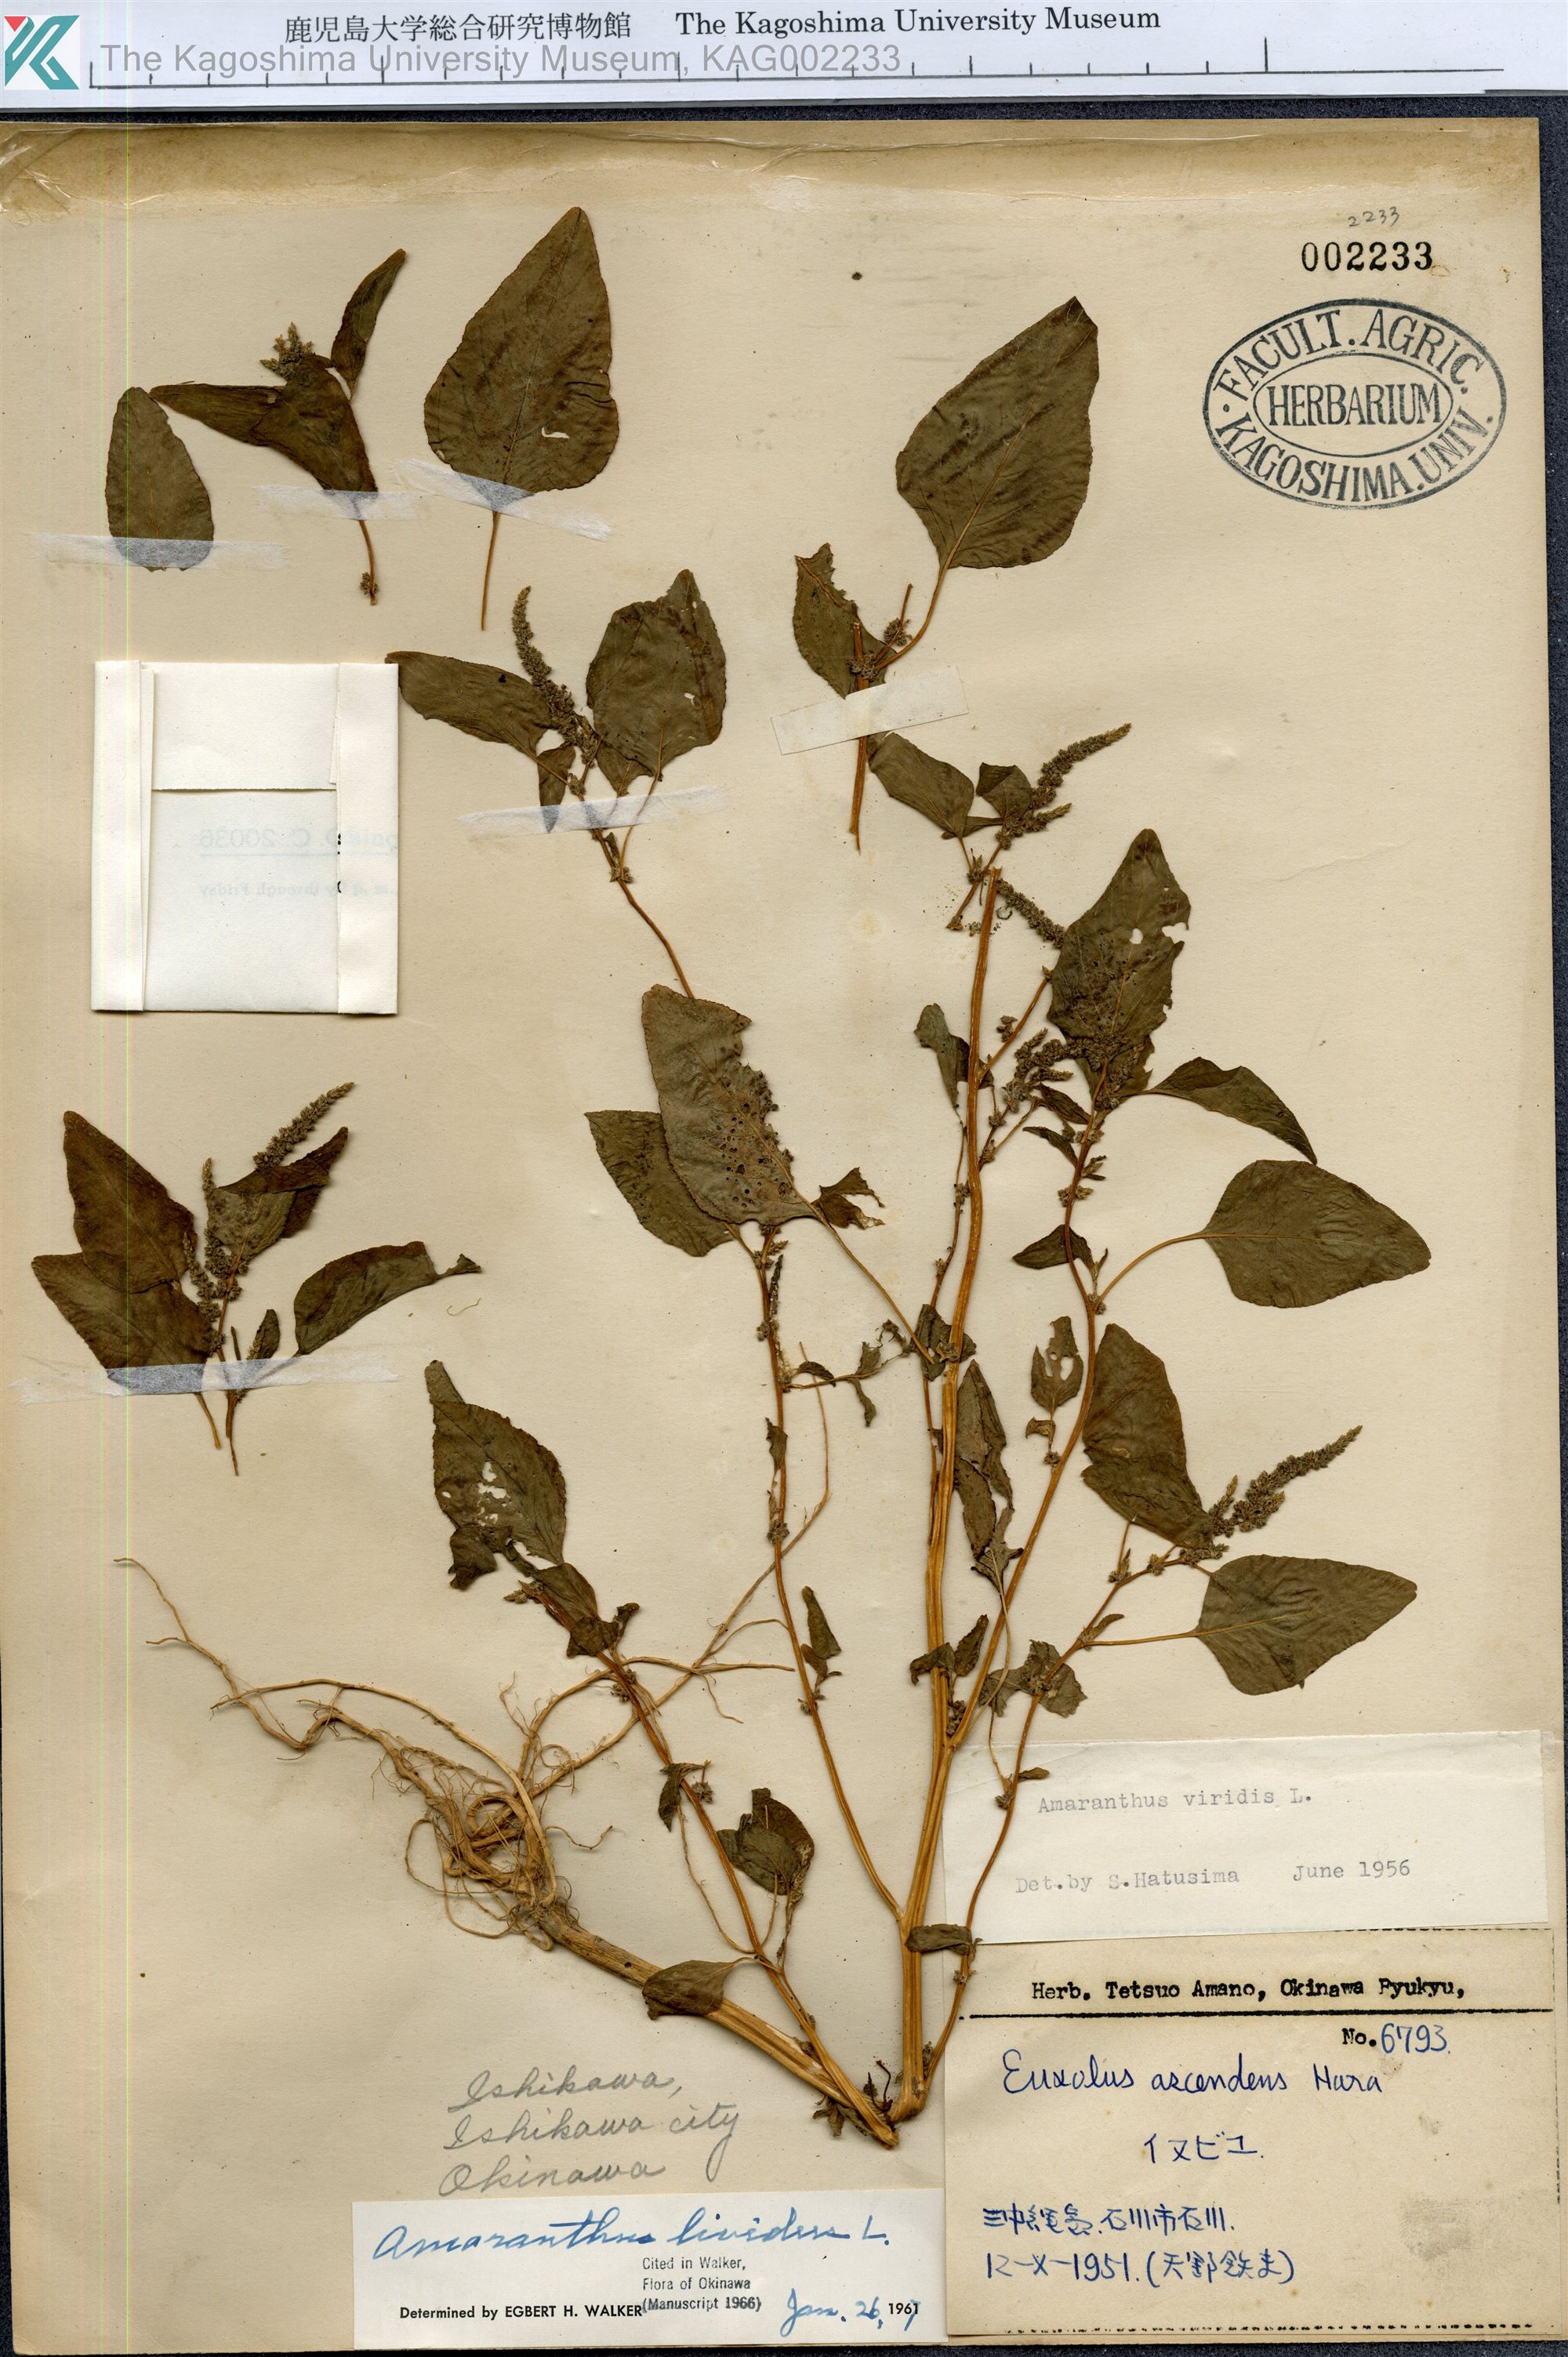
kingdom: Plantae
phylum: Tracheophyta
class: Magnoliopsida
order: Caryophyllales
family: Amaranthaceae
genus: Amaranthus
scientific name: Amaranthus blitum
